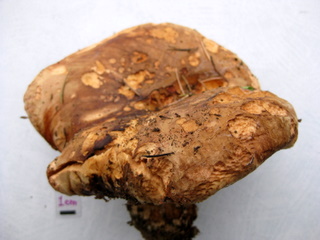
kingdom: Fungi
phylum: Basidiomycota
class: Agaricomycetes
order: Boletales
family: Paxillaceae
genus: Paxillus
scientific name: Paxillus ammoniavirescens
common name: olivensporet netbladhat
